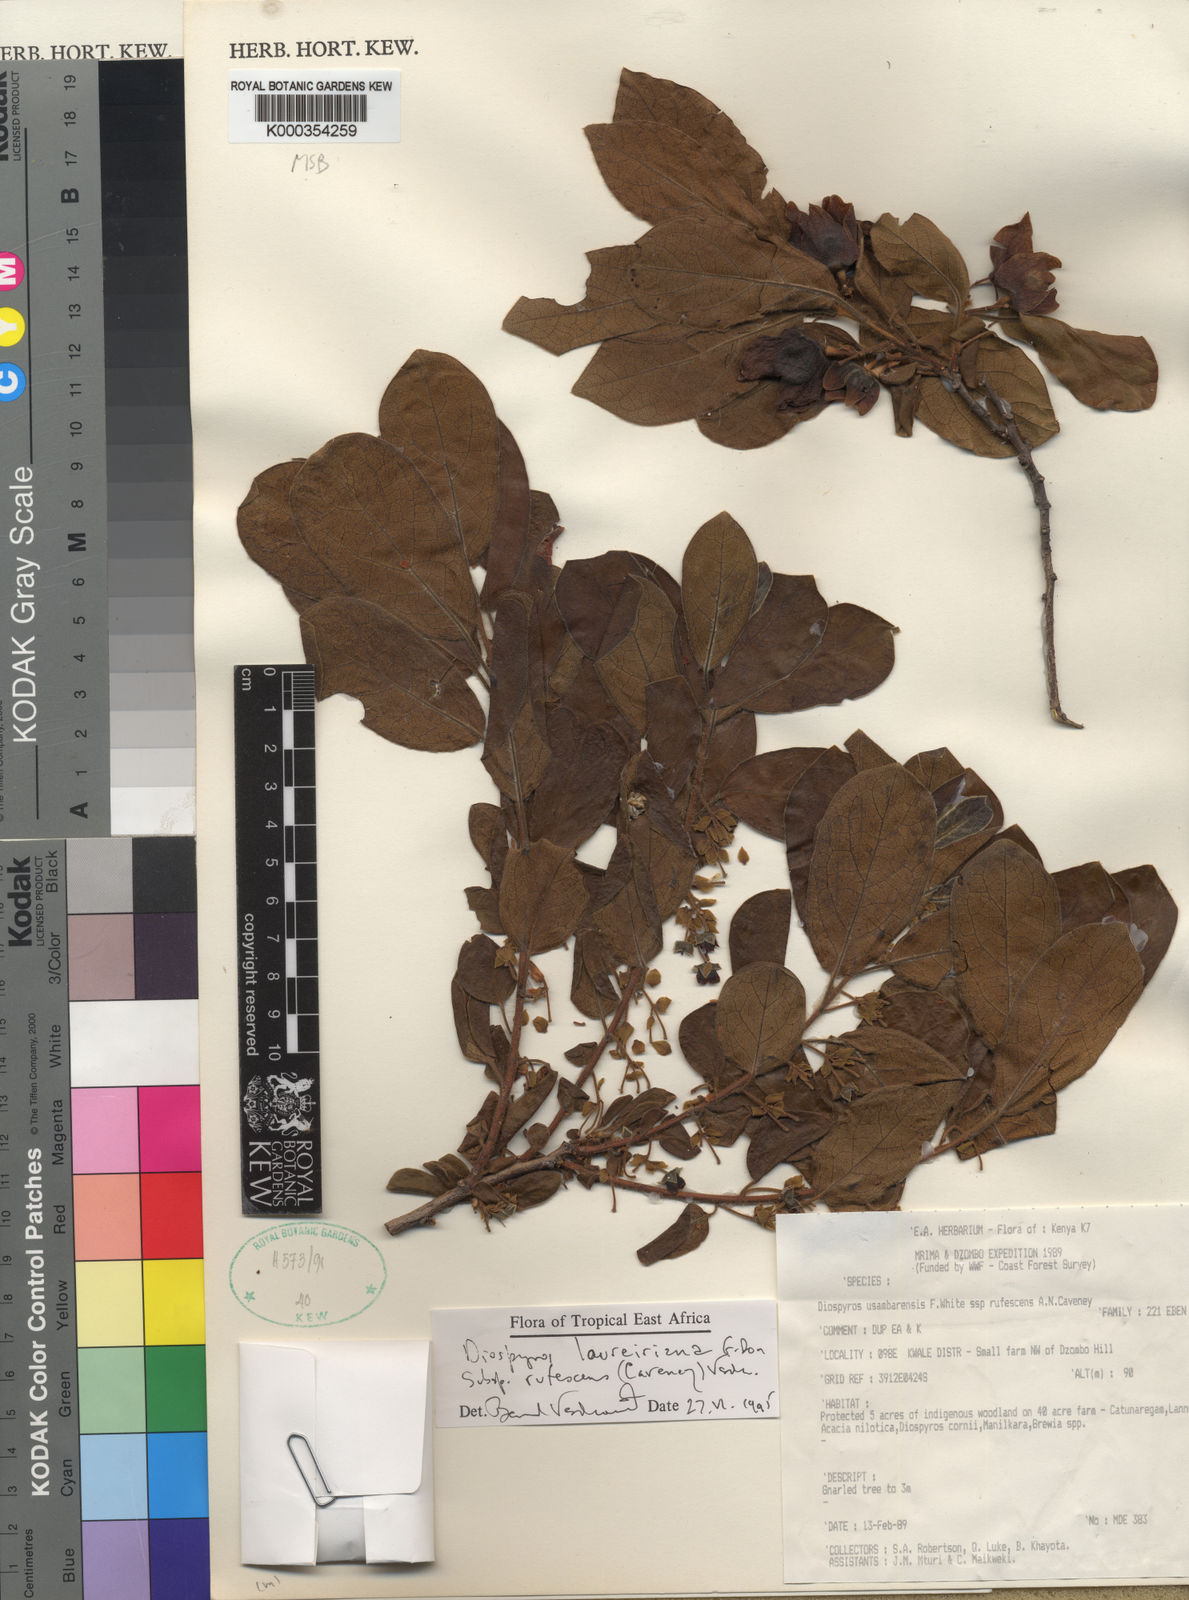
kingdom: Plantae
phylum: Tracheophyta
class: Magnoliopsida
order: Ericales
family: Ebenaceae
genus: Diospyros
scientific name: Diospyros loureiroana
